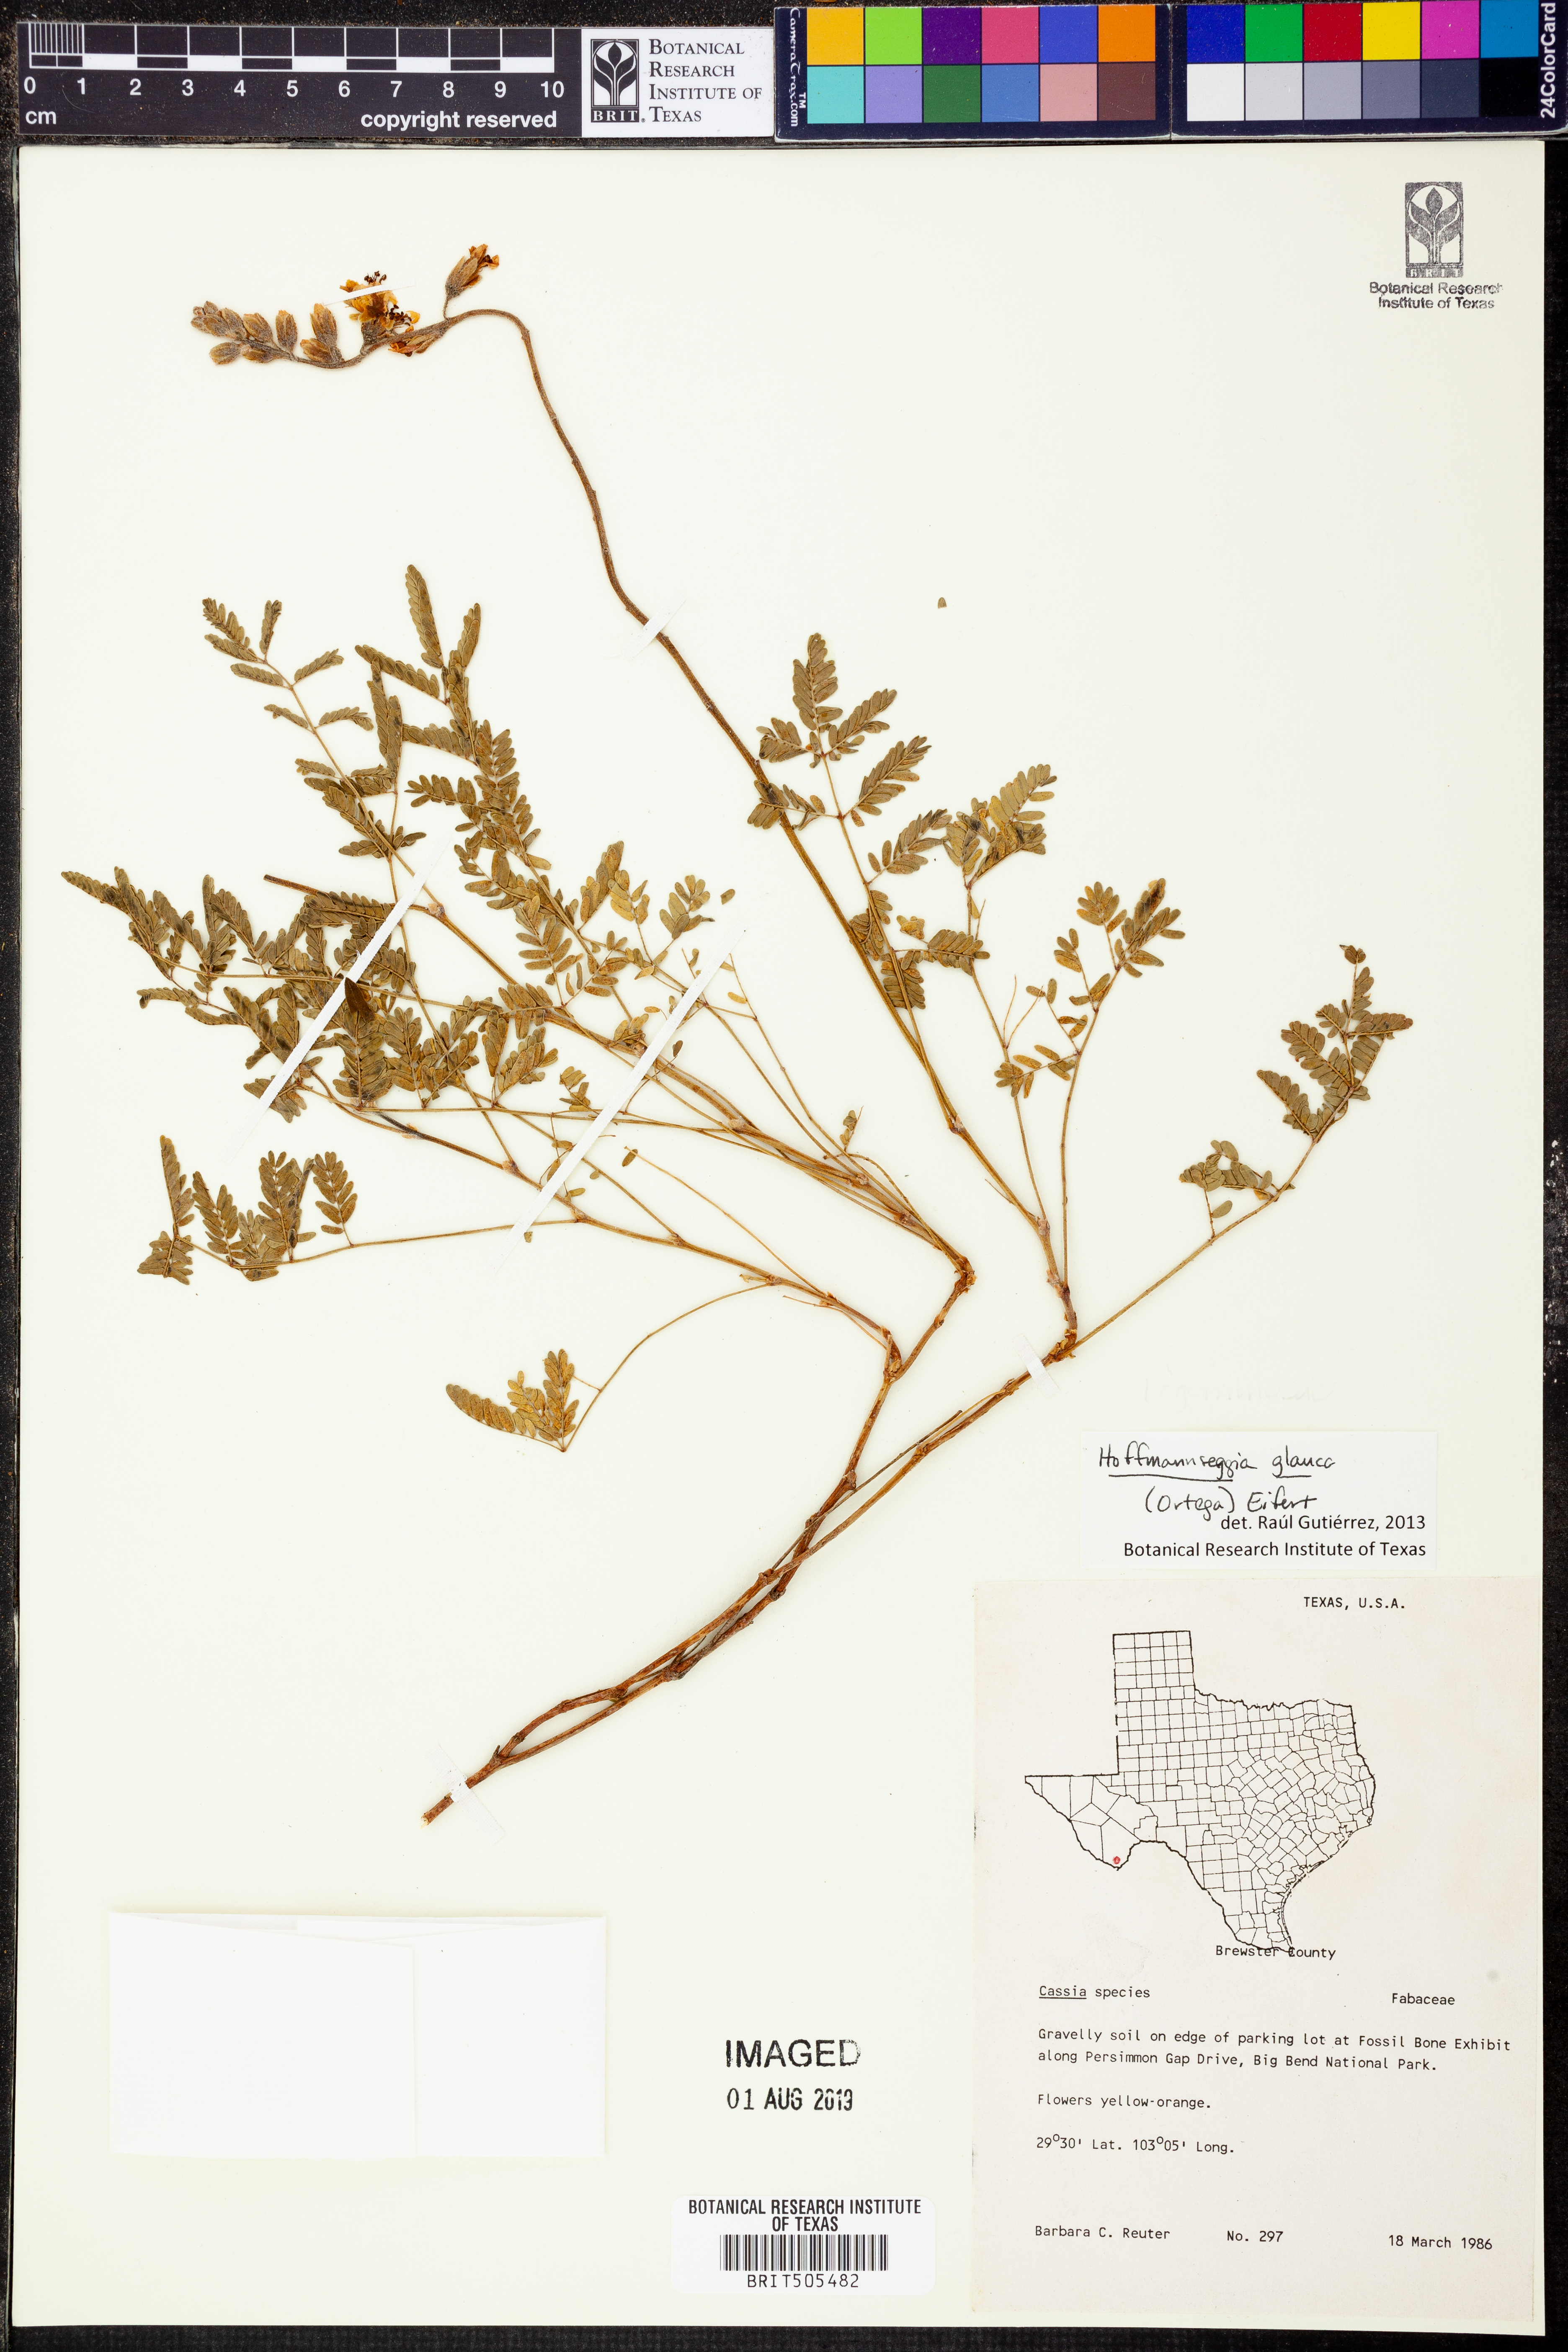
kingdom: Plantae
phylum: Tracheophyta
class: Magnoliopsida
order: Fabales
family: Fabaceae
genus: Hoffmannseggia
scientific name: Hoffmannseggia glauca
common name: Pignut
